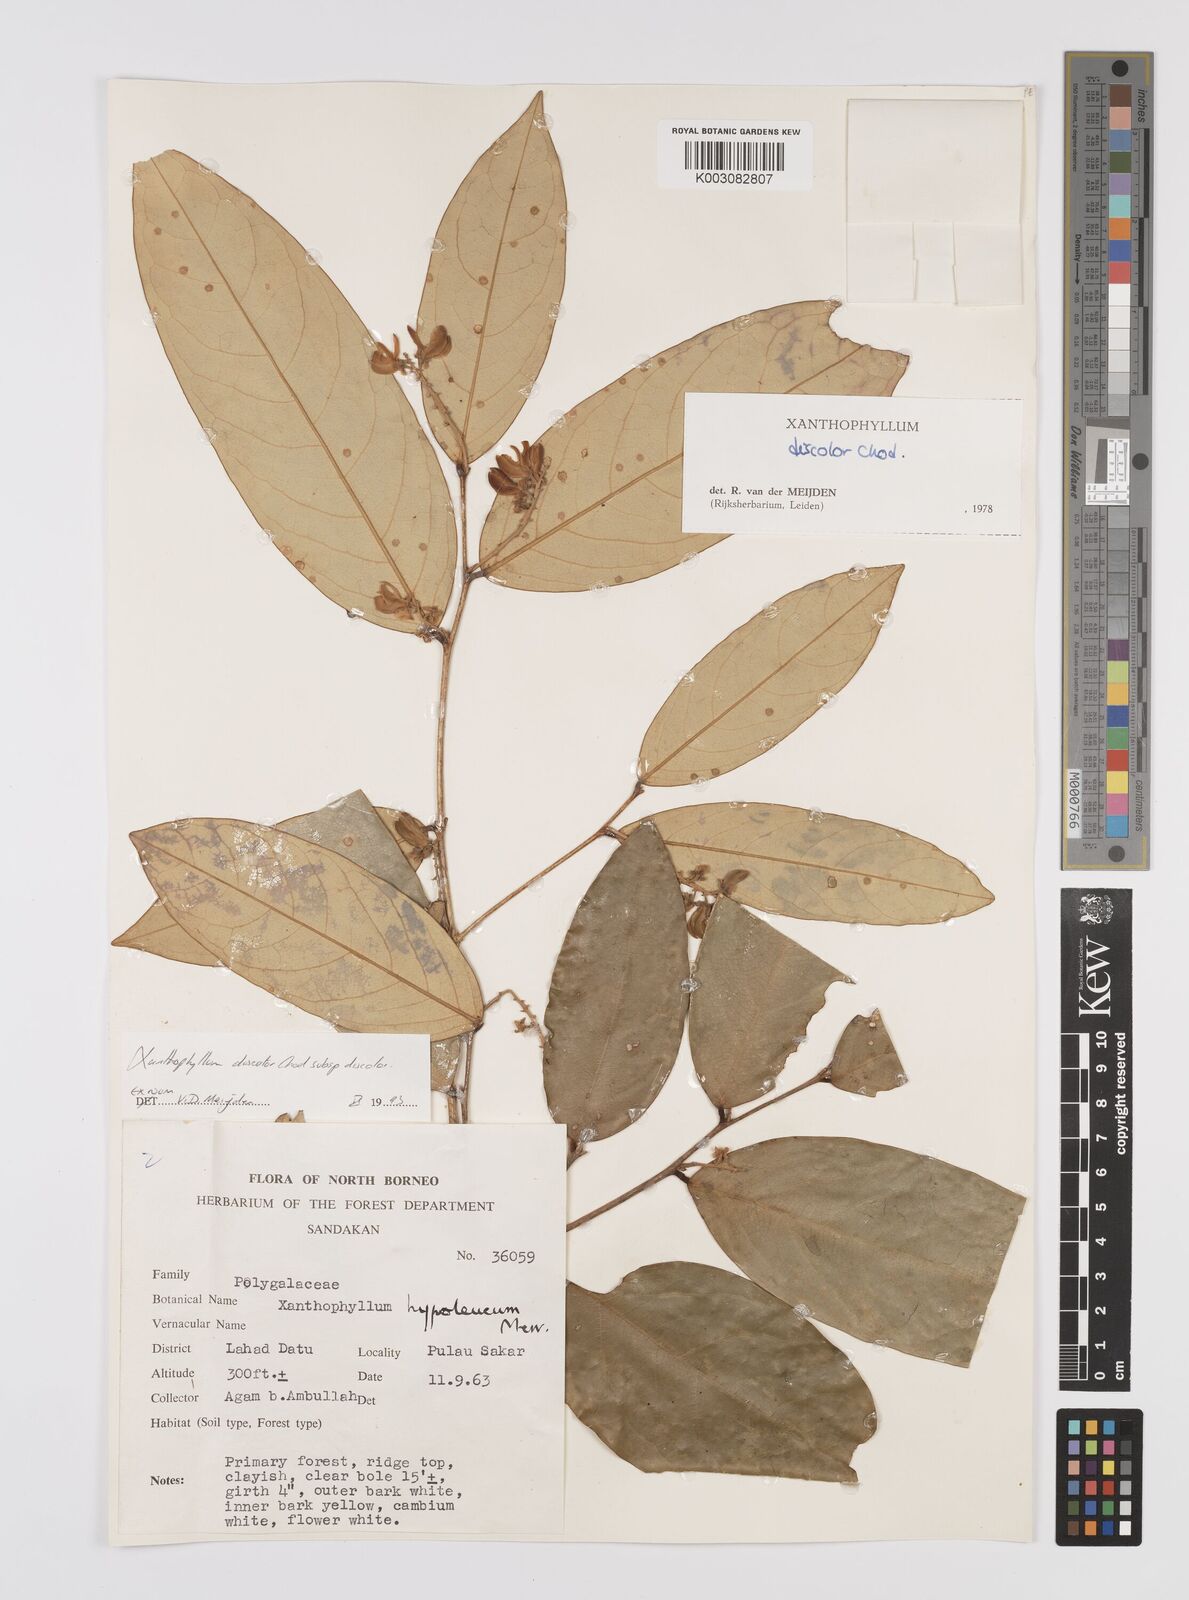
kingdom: Plantae
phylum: Tracheophyta
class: Magnoliopsida
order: Fabales
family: Polygalaceae
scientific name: Polygalaceae
